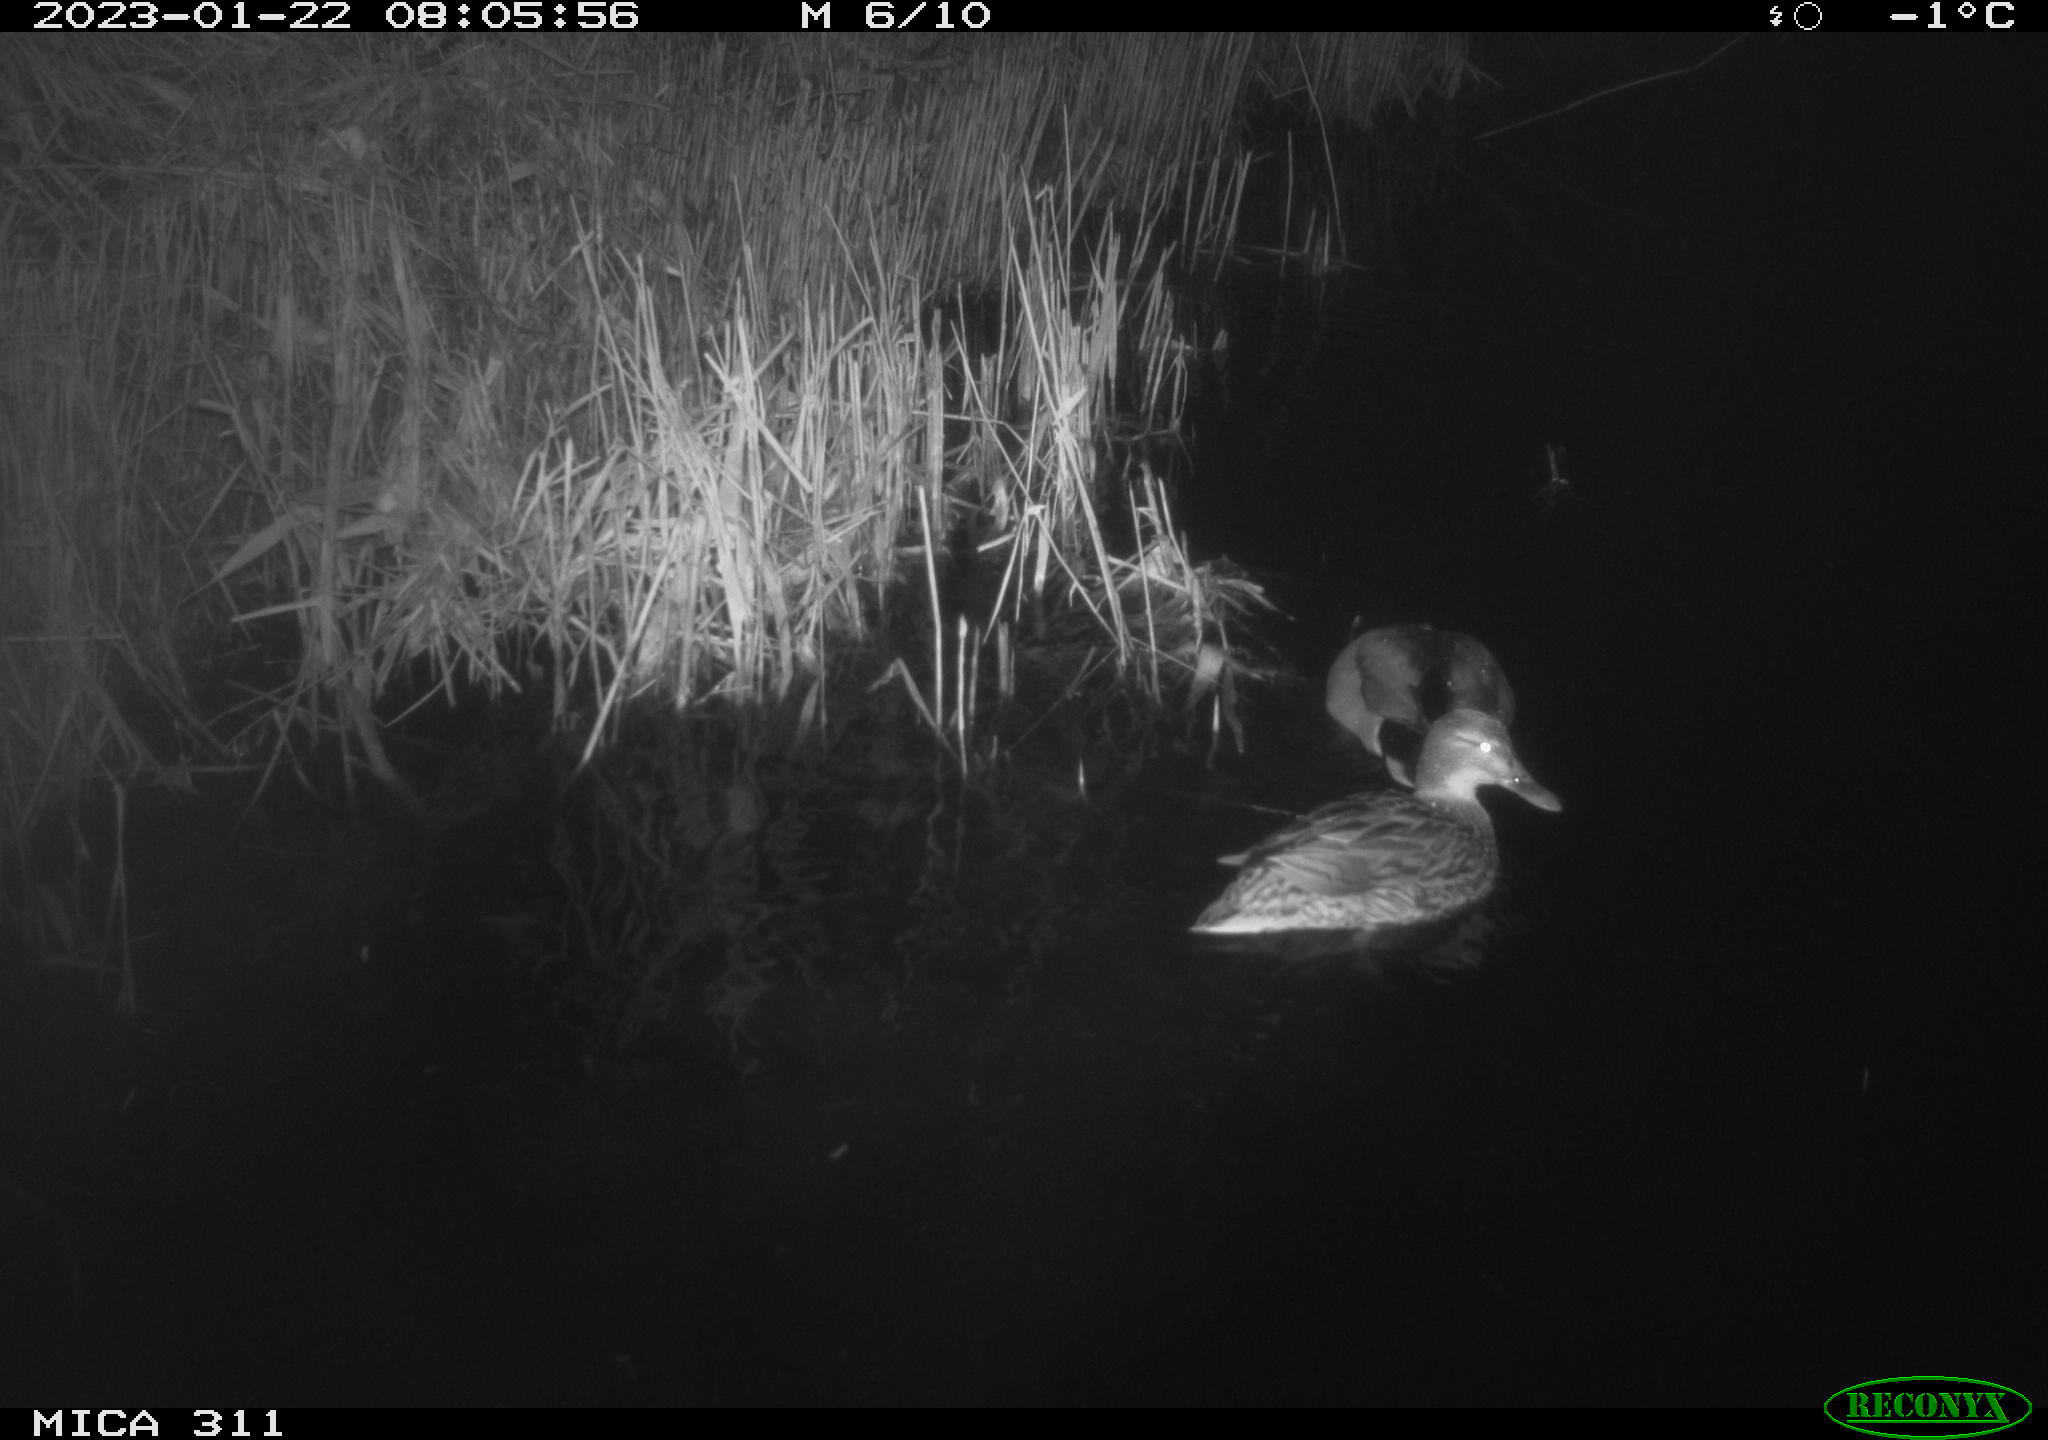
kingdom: Animalia
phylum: Chordata
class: Aves
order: Gruiformes
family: Rallidae
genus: Gallinula
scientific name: Gallinula chloropus
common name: Common moorhen
